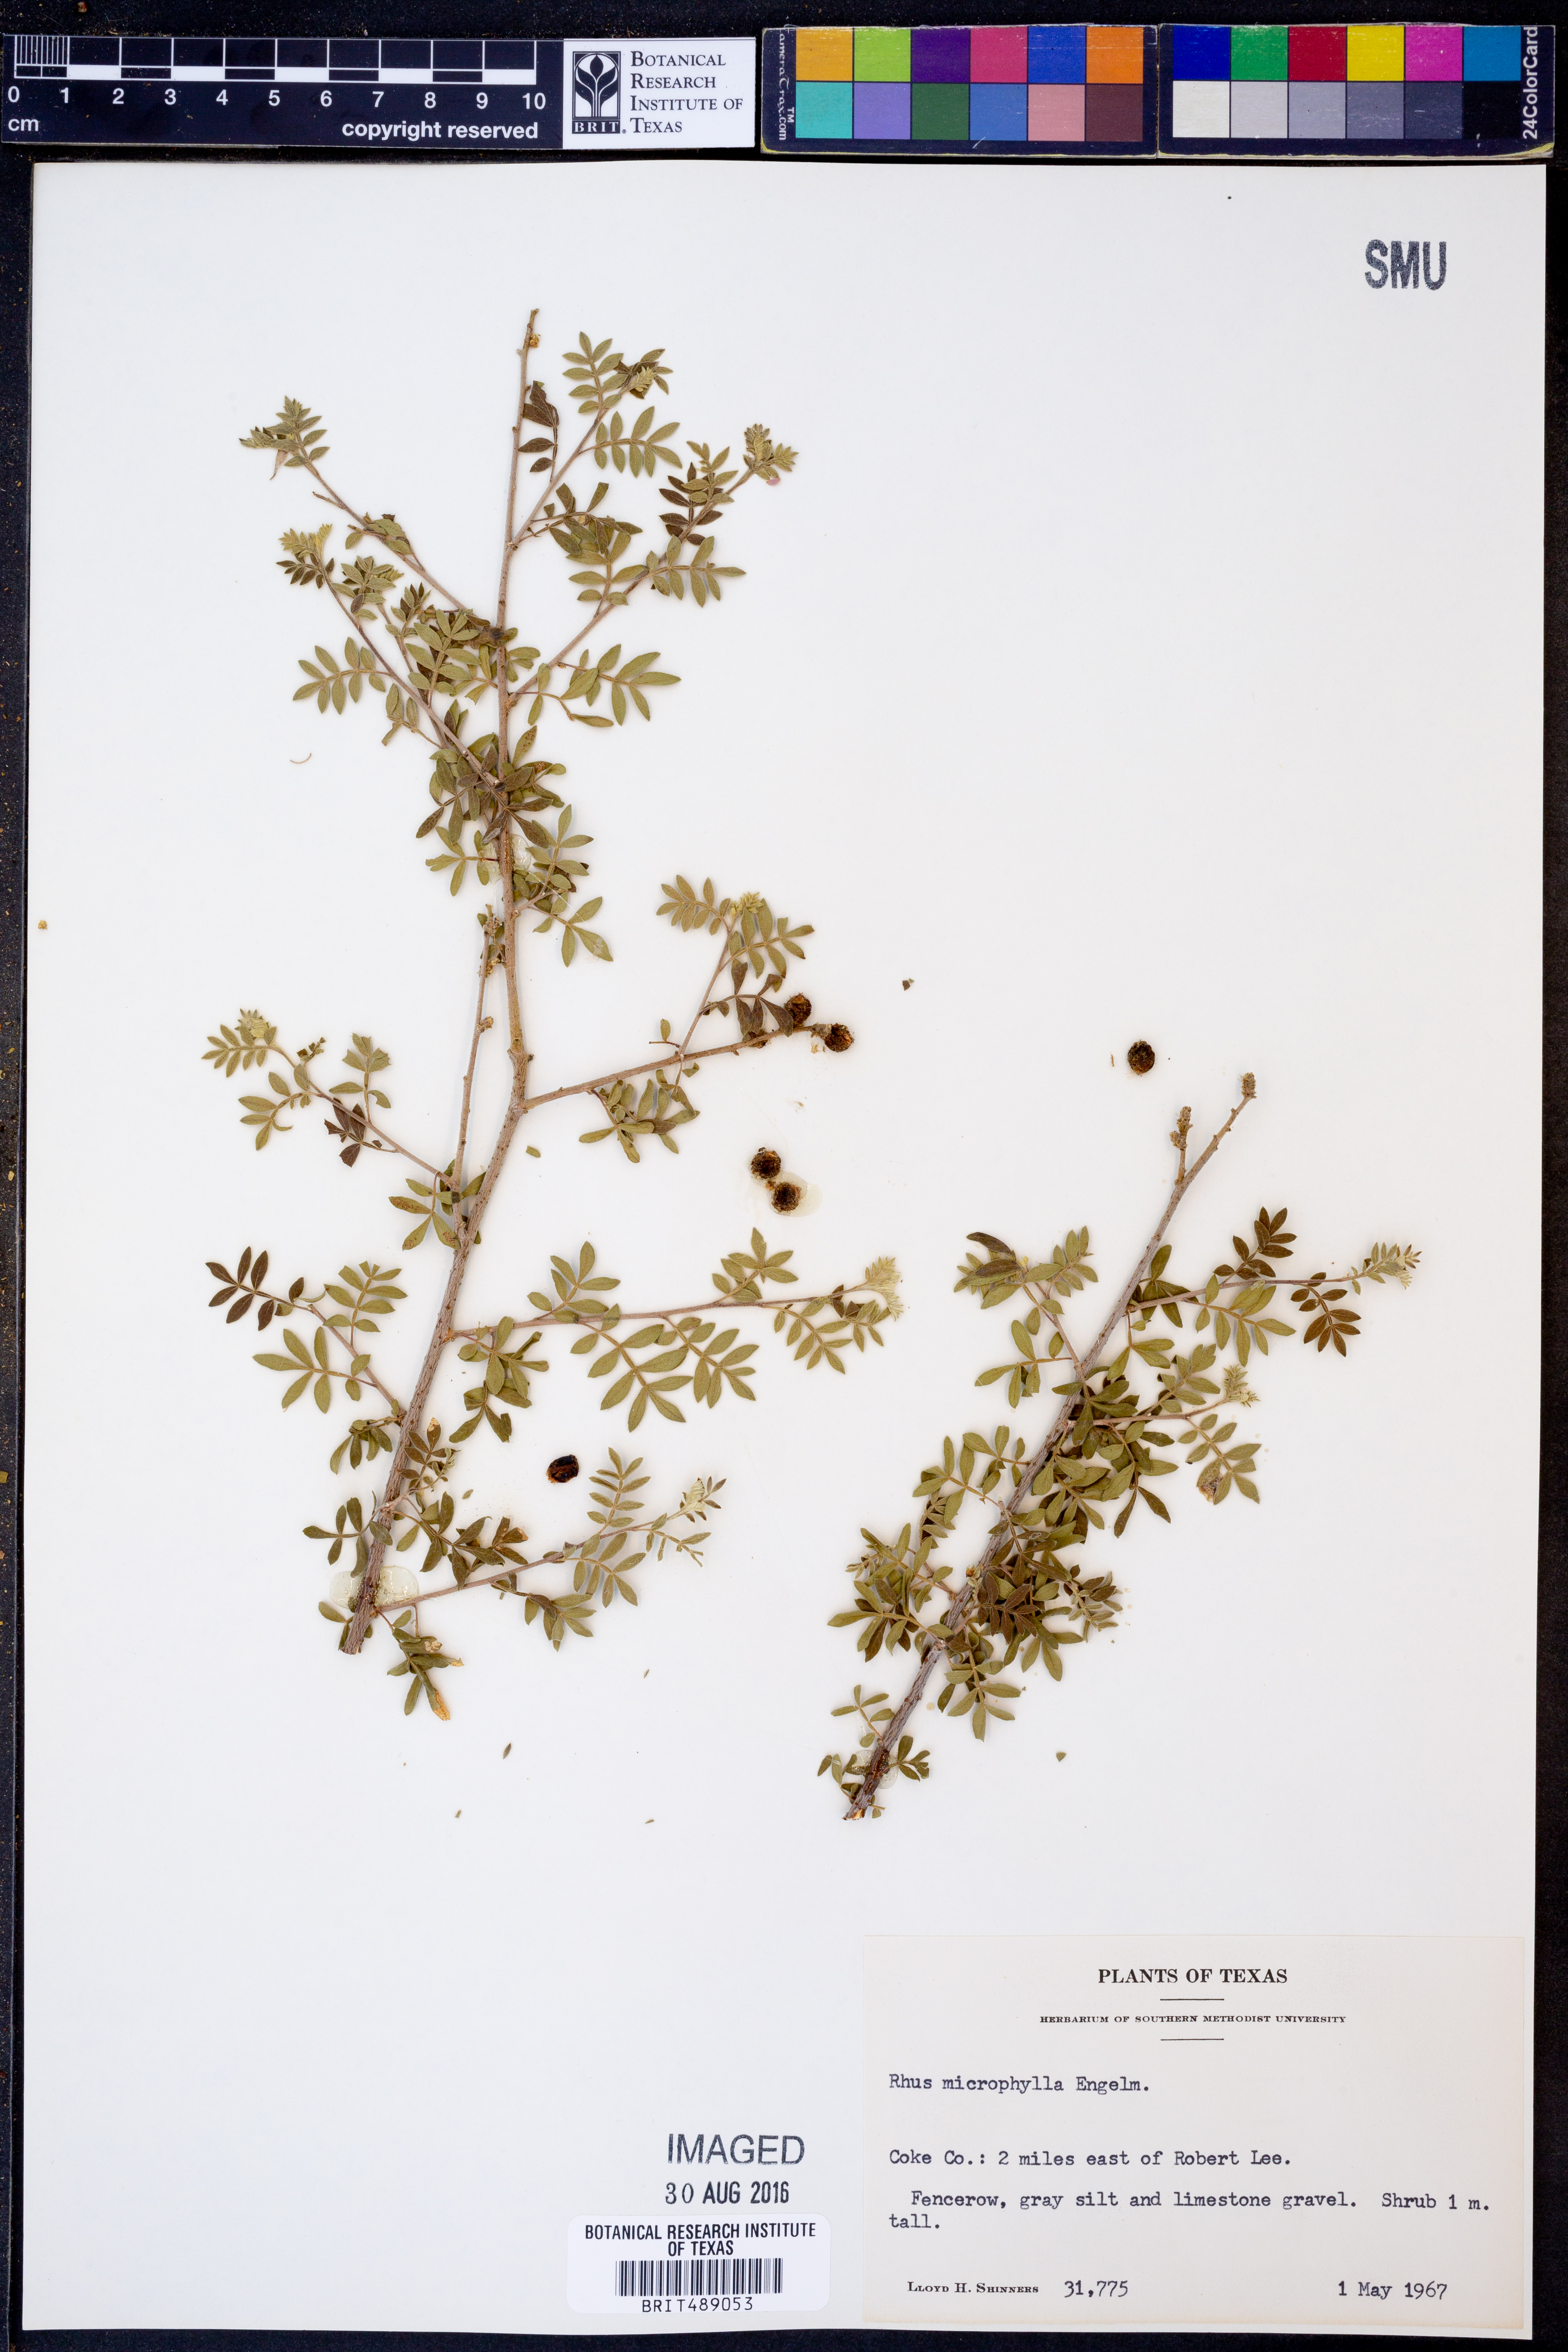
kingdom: Plantae
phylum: Tracheophyta
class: Magnoliopsida
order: Sapindales
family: Anacardiaceae
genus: Rhus
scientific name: Rhus microphylla
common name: Desert sumac
